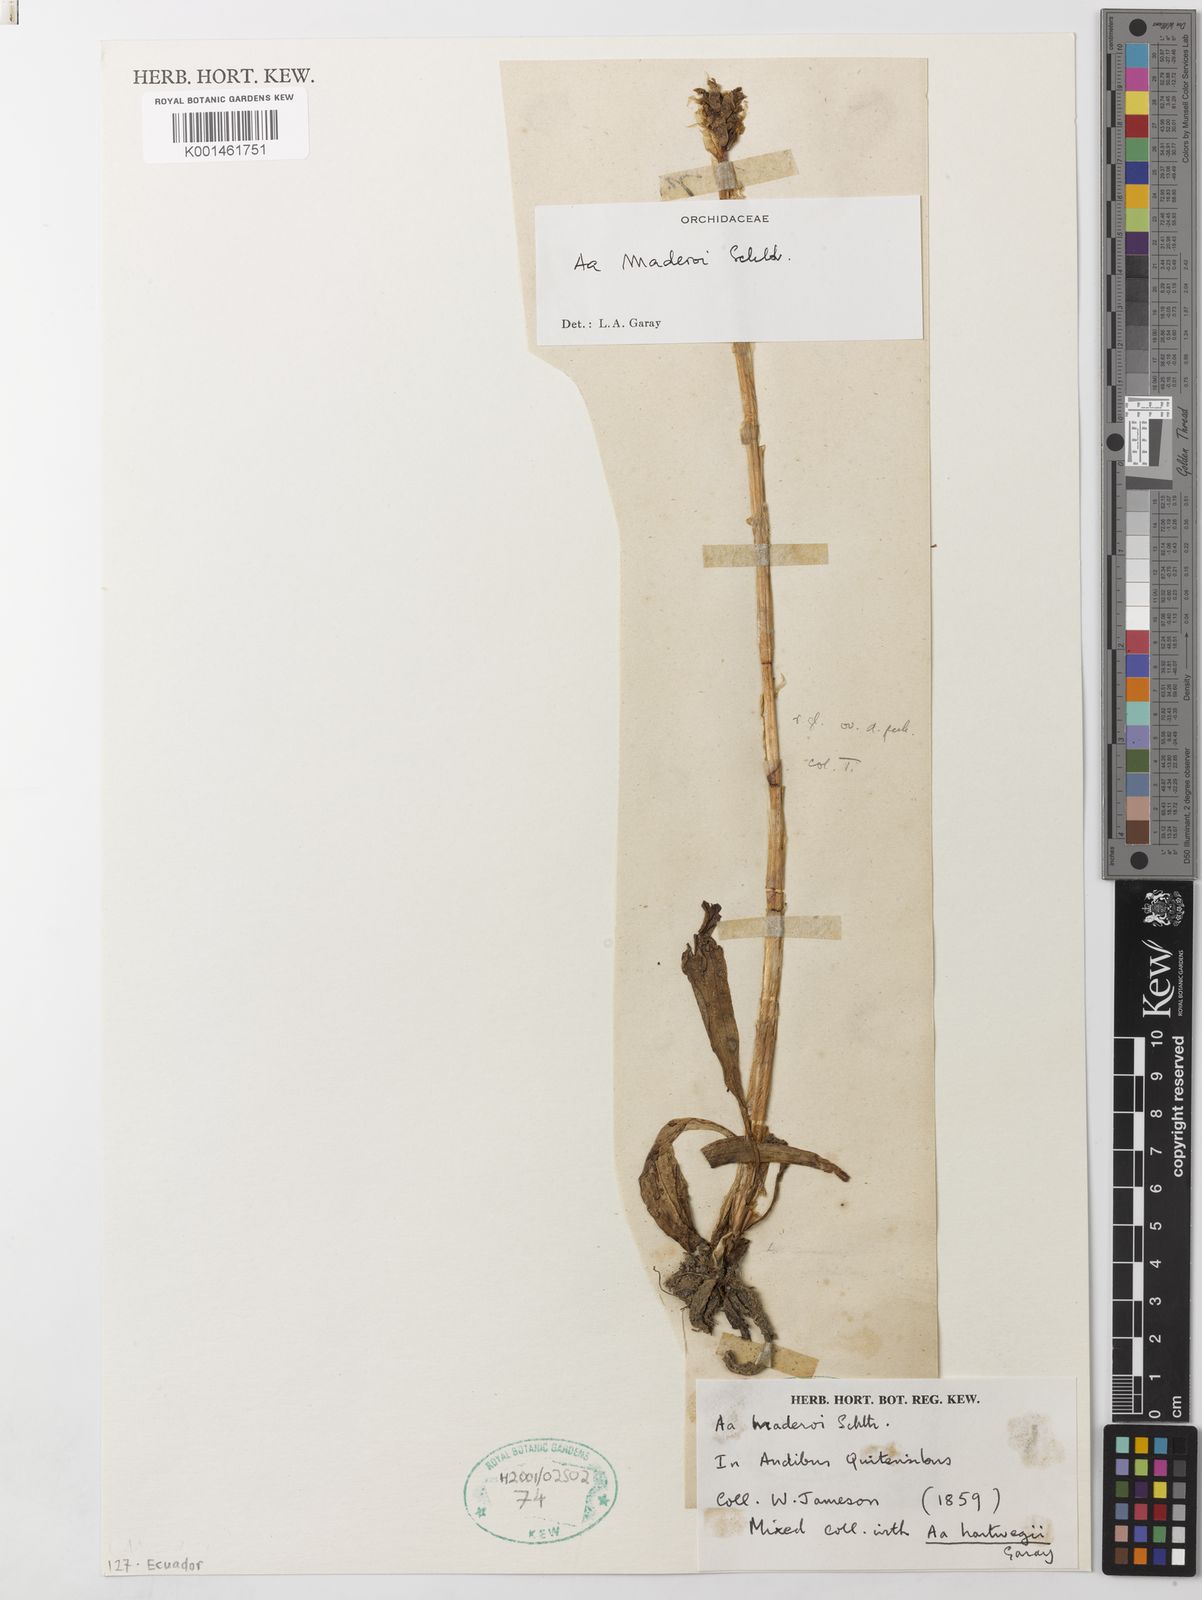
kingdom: Plantae
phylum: Tracheophyta
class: Liliopsida
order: Asparagales
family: Orchidaceae
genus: Aa
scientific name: Aa maderoi
